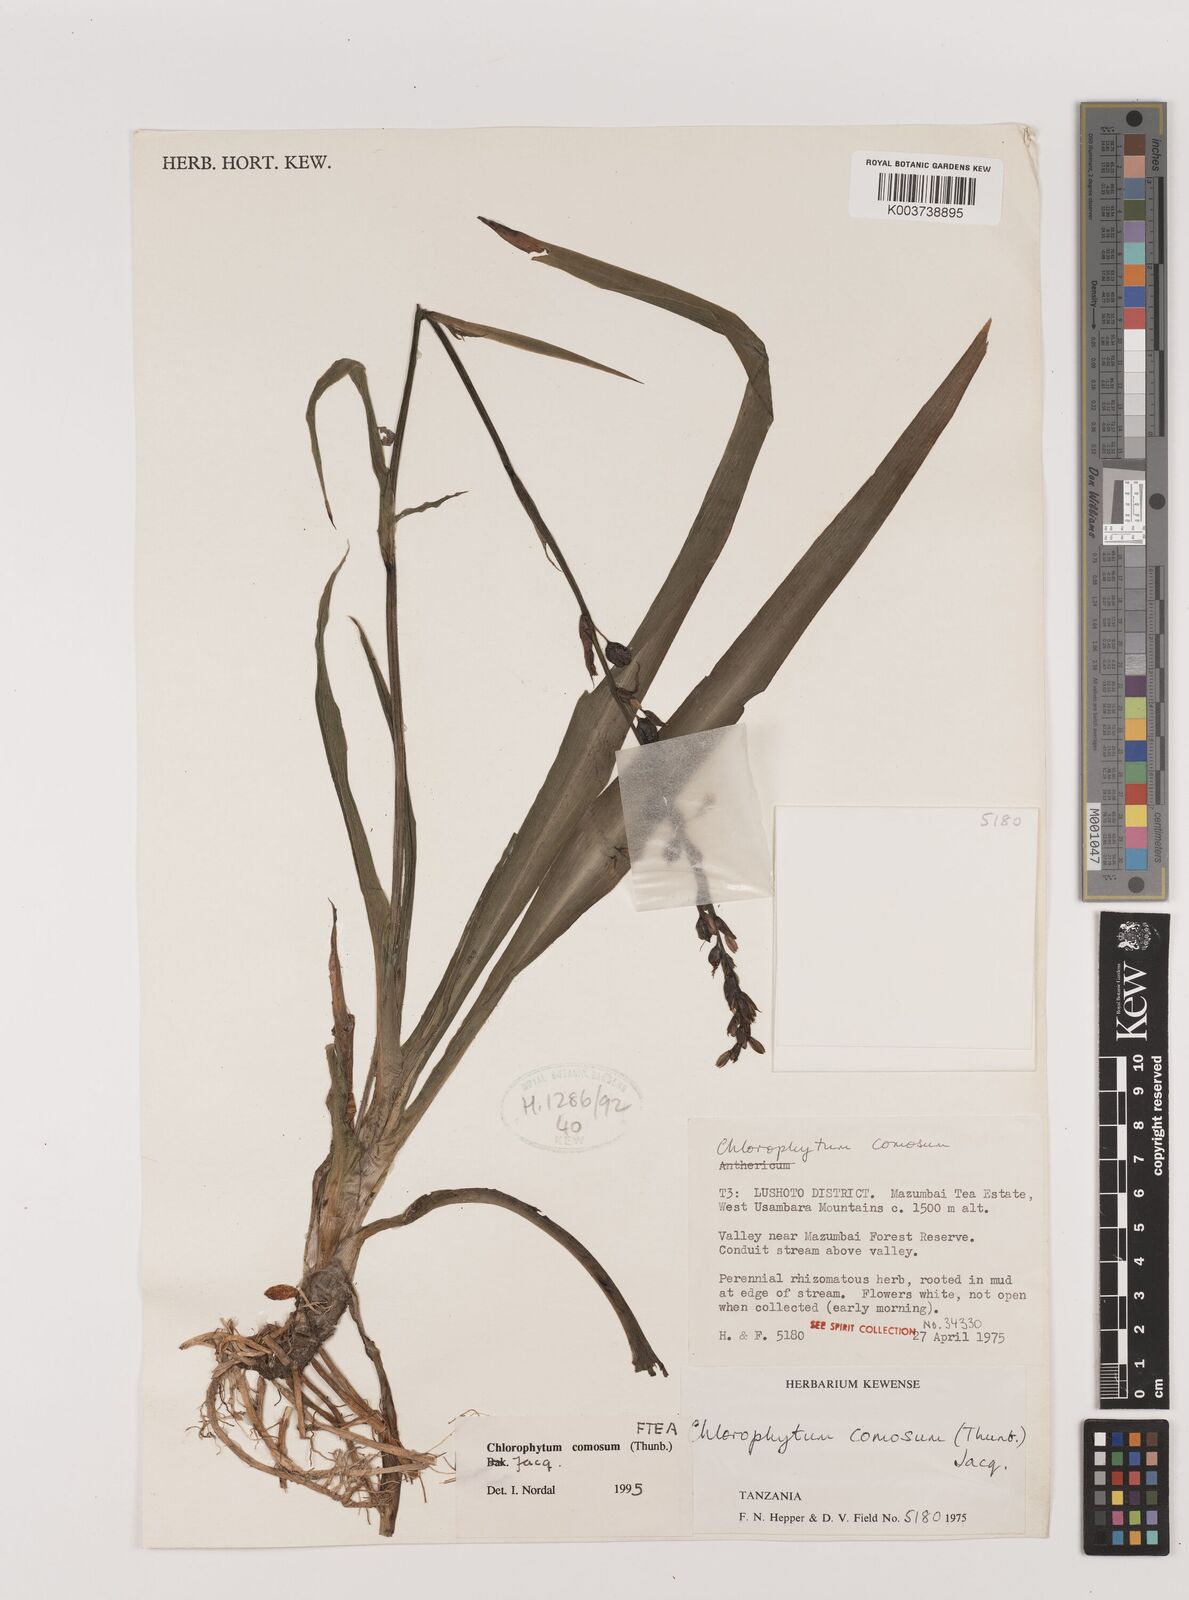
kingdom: Plantae
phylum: Tracheophyta
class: Liliopsida
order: Asparagales
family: Asparagaceae
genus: Chlorophytum
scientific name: Chlorophytum comosum
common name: Spider plant
